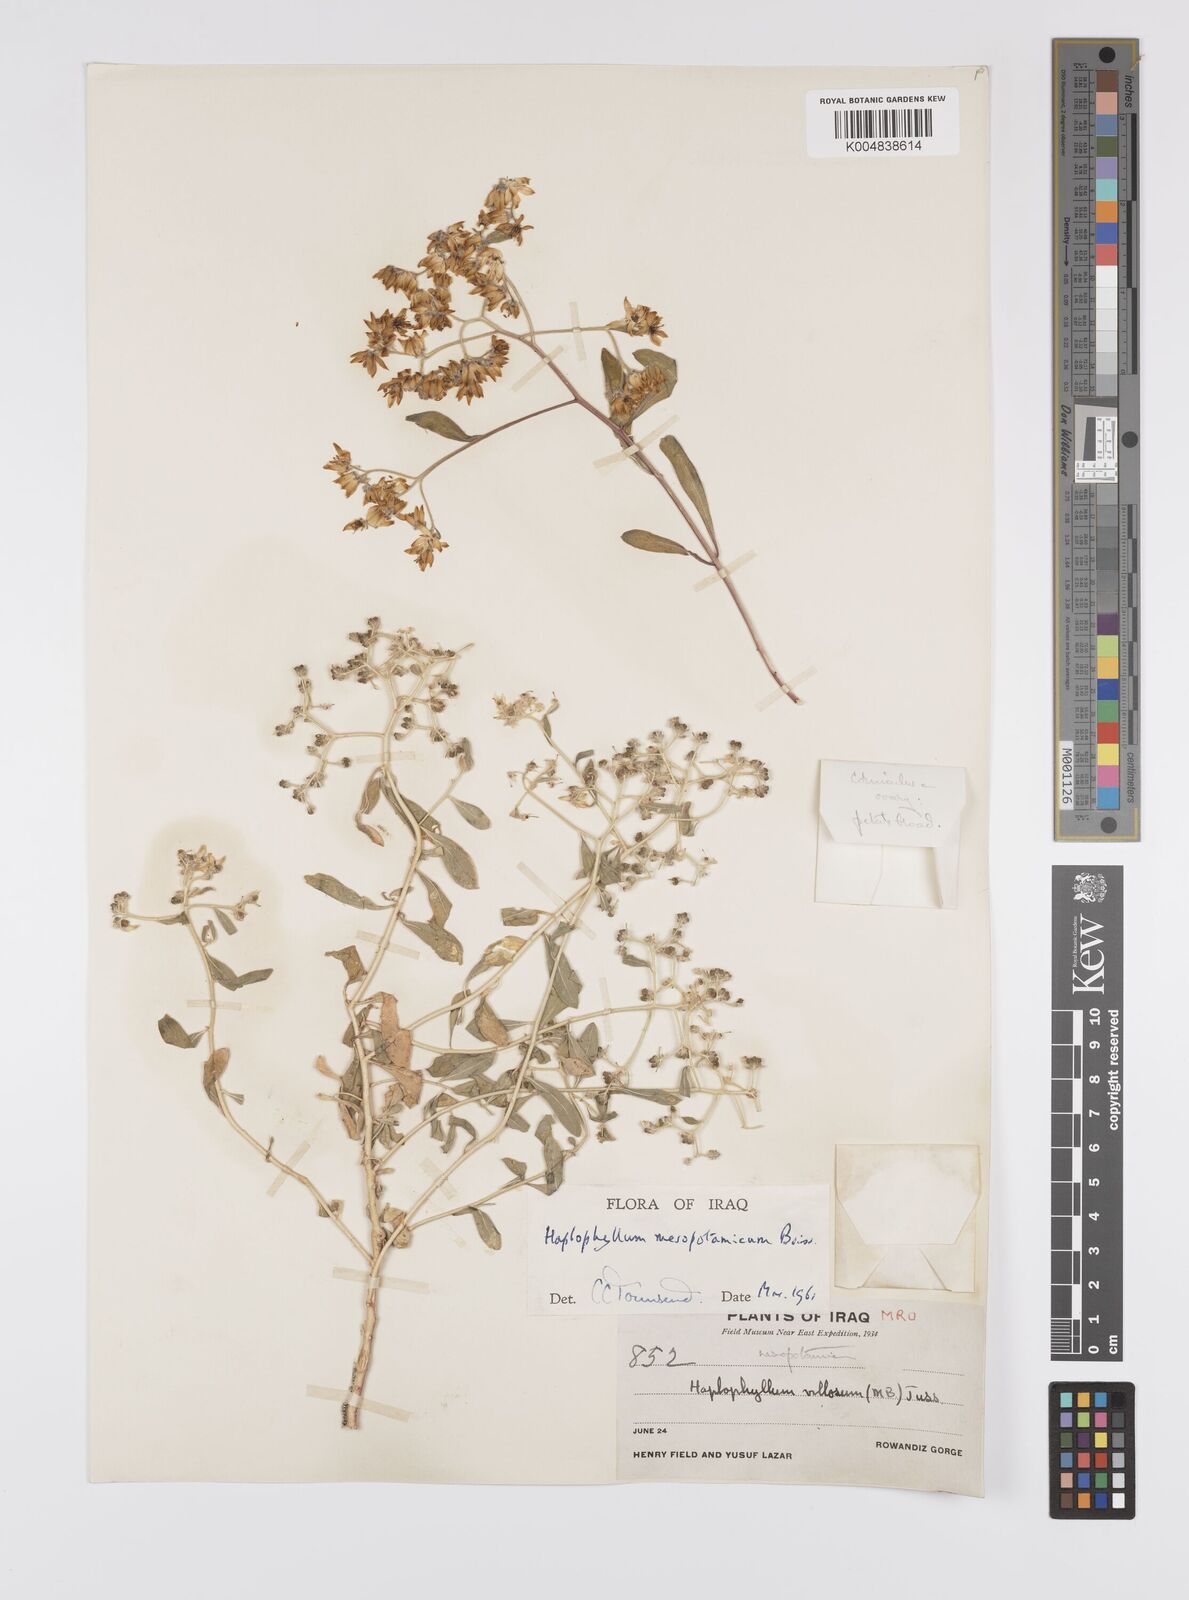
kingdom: Plantae
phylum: Tracheophyta
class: Magnoliopsida
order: Sapindales
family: Rutaceae
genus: Haplophyllum
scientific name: Haplophyllum buxbaumii
